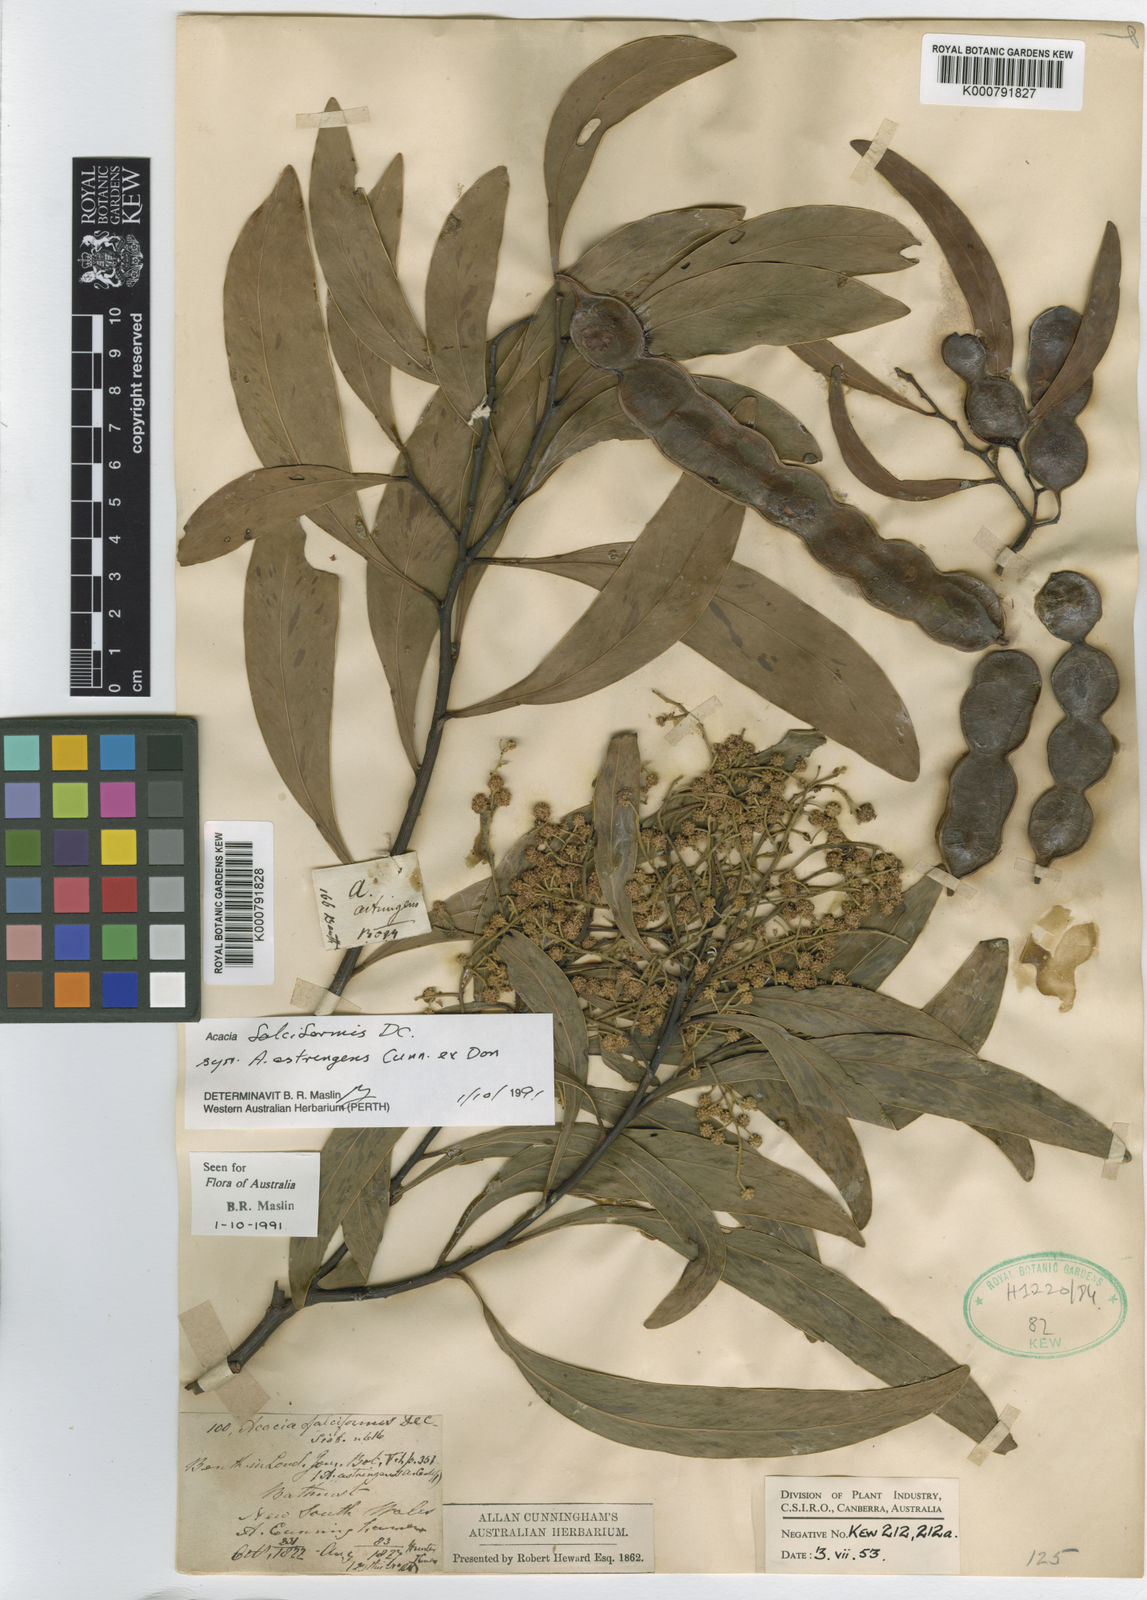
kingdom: Plantae
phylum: Tracheophyta
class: Magnoliopsida
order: Fabales
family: Fabaceae
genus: Acacia
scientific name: Acacia falciformis
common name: Tanning wattle
